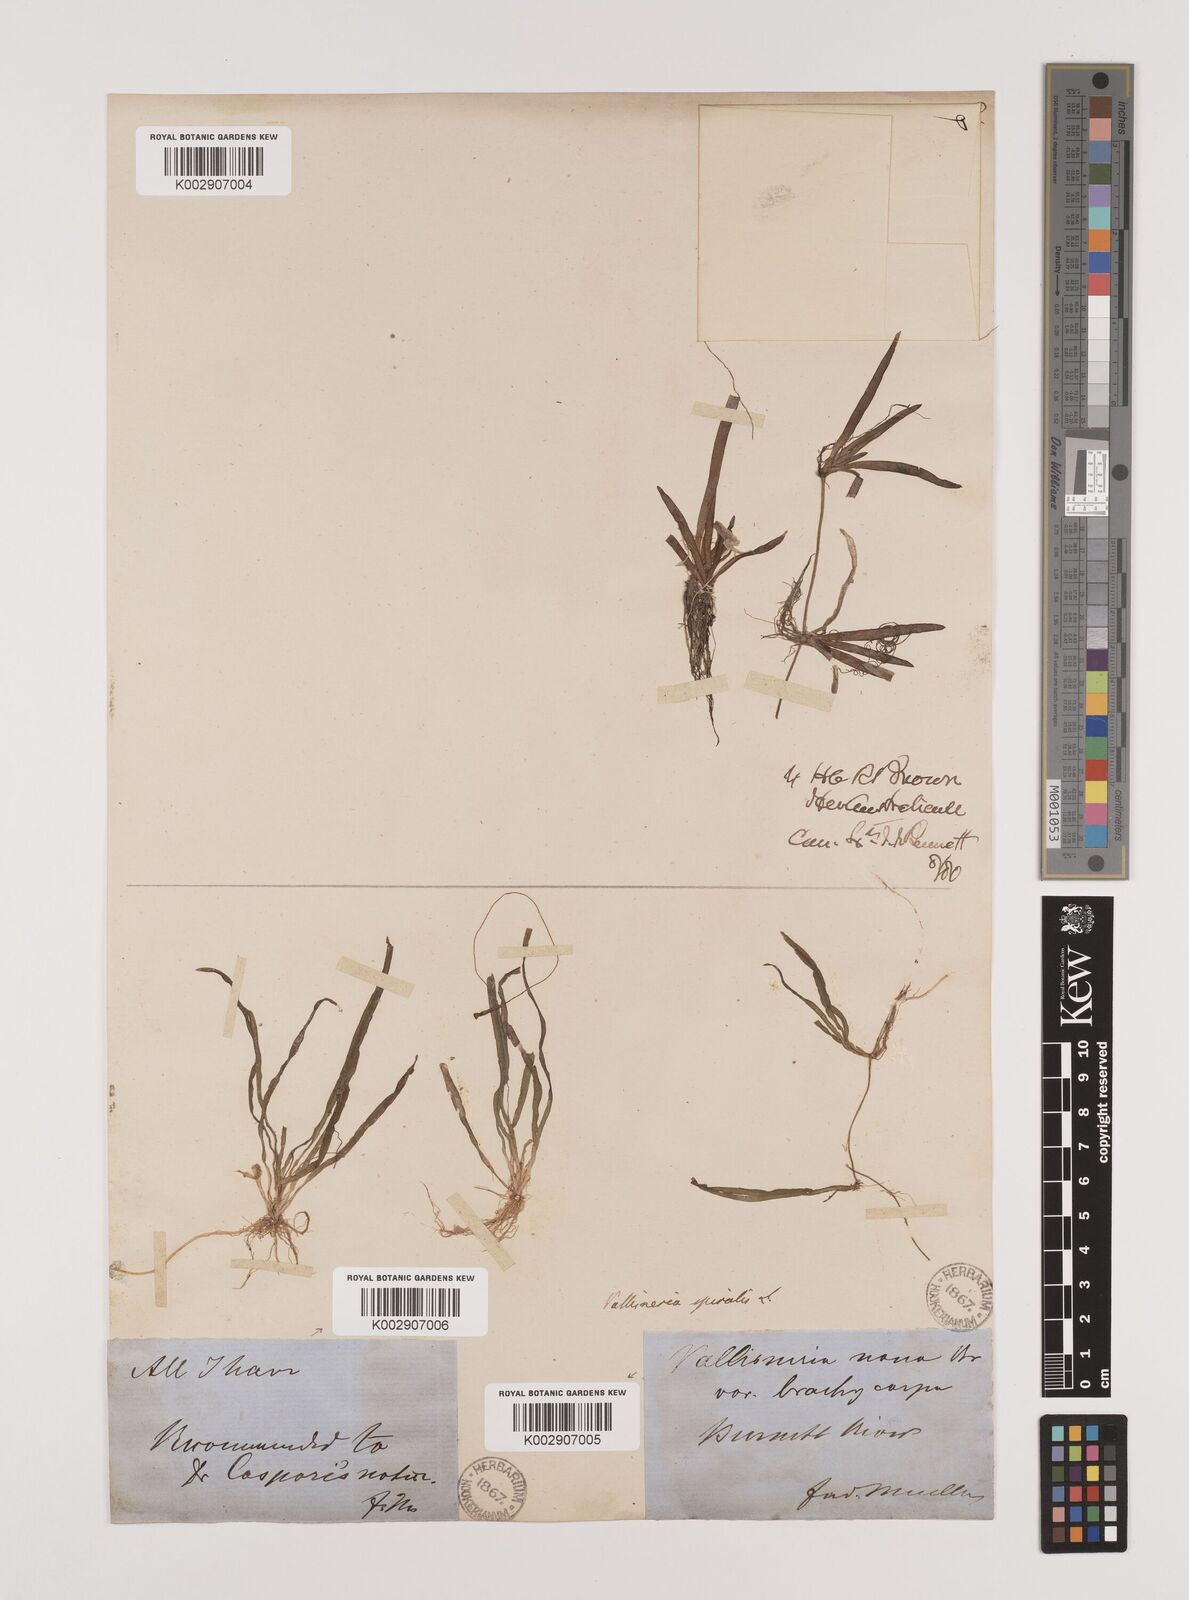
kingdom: Plantae
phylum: Tracheophyta
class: Liliopsida
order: Alismatales
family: Hydrocharitaceae
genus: Vallisneria
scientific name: Vallisneria spiralis
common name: Tapegrass
